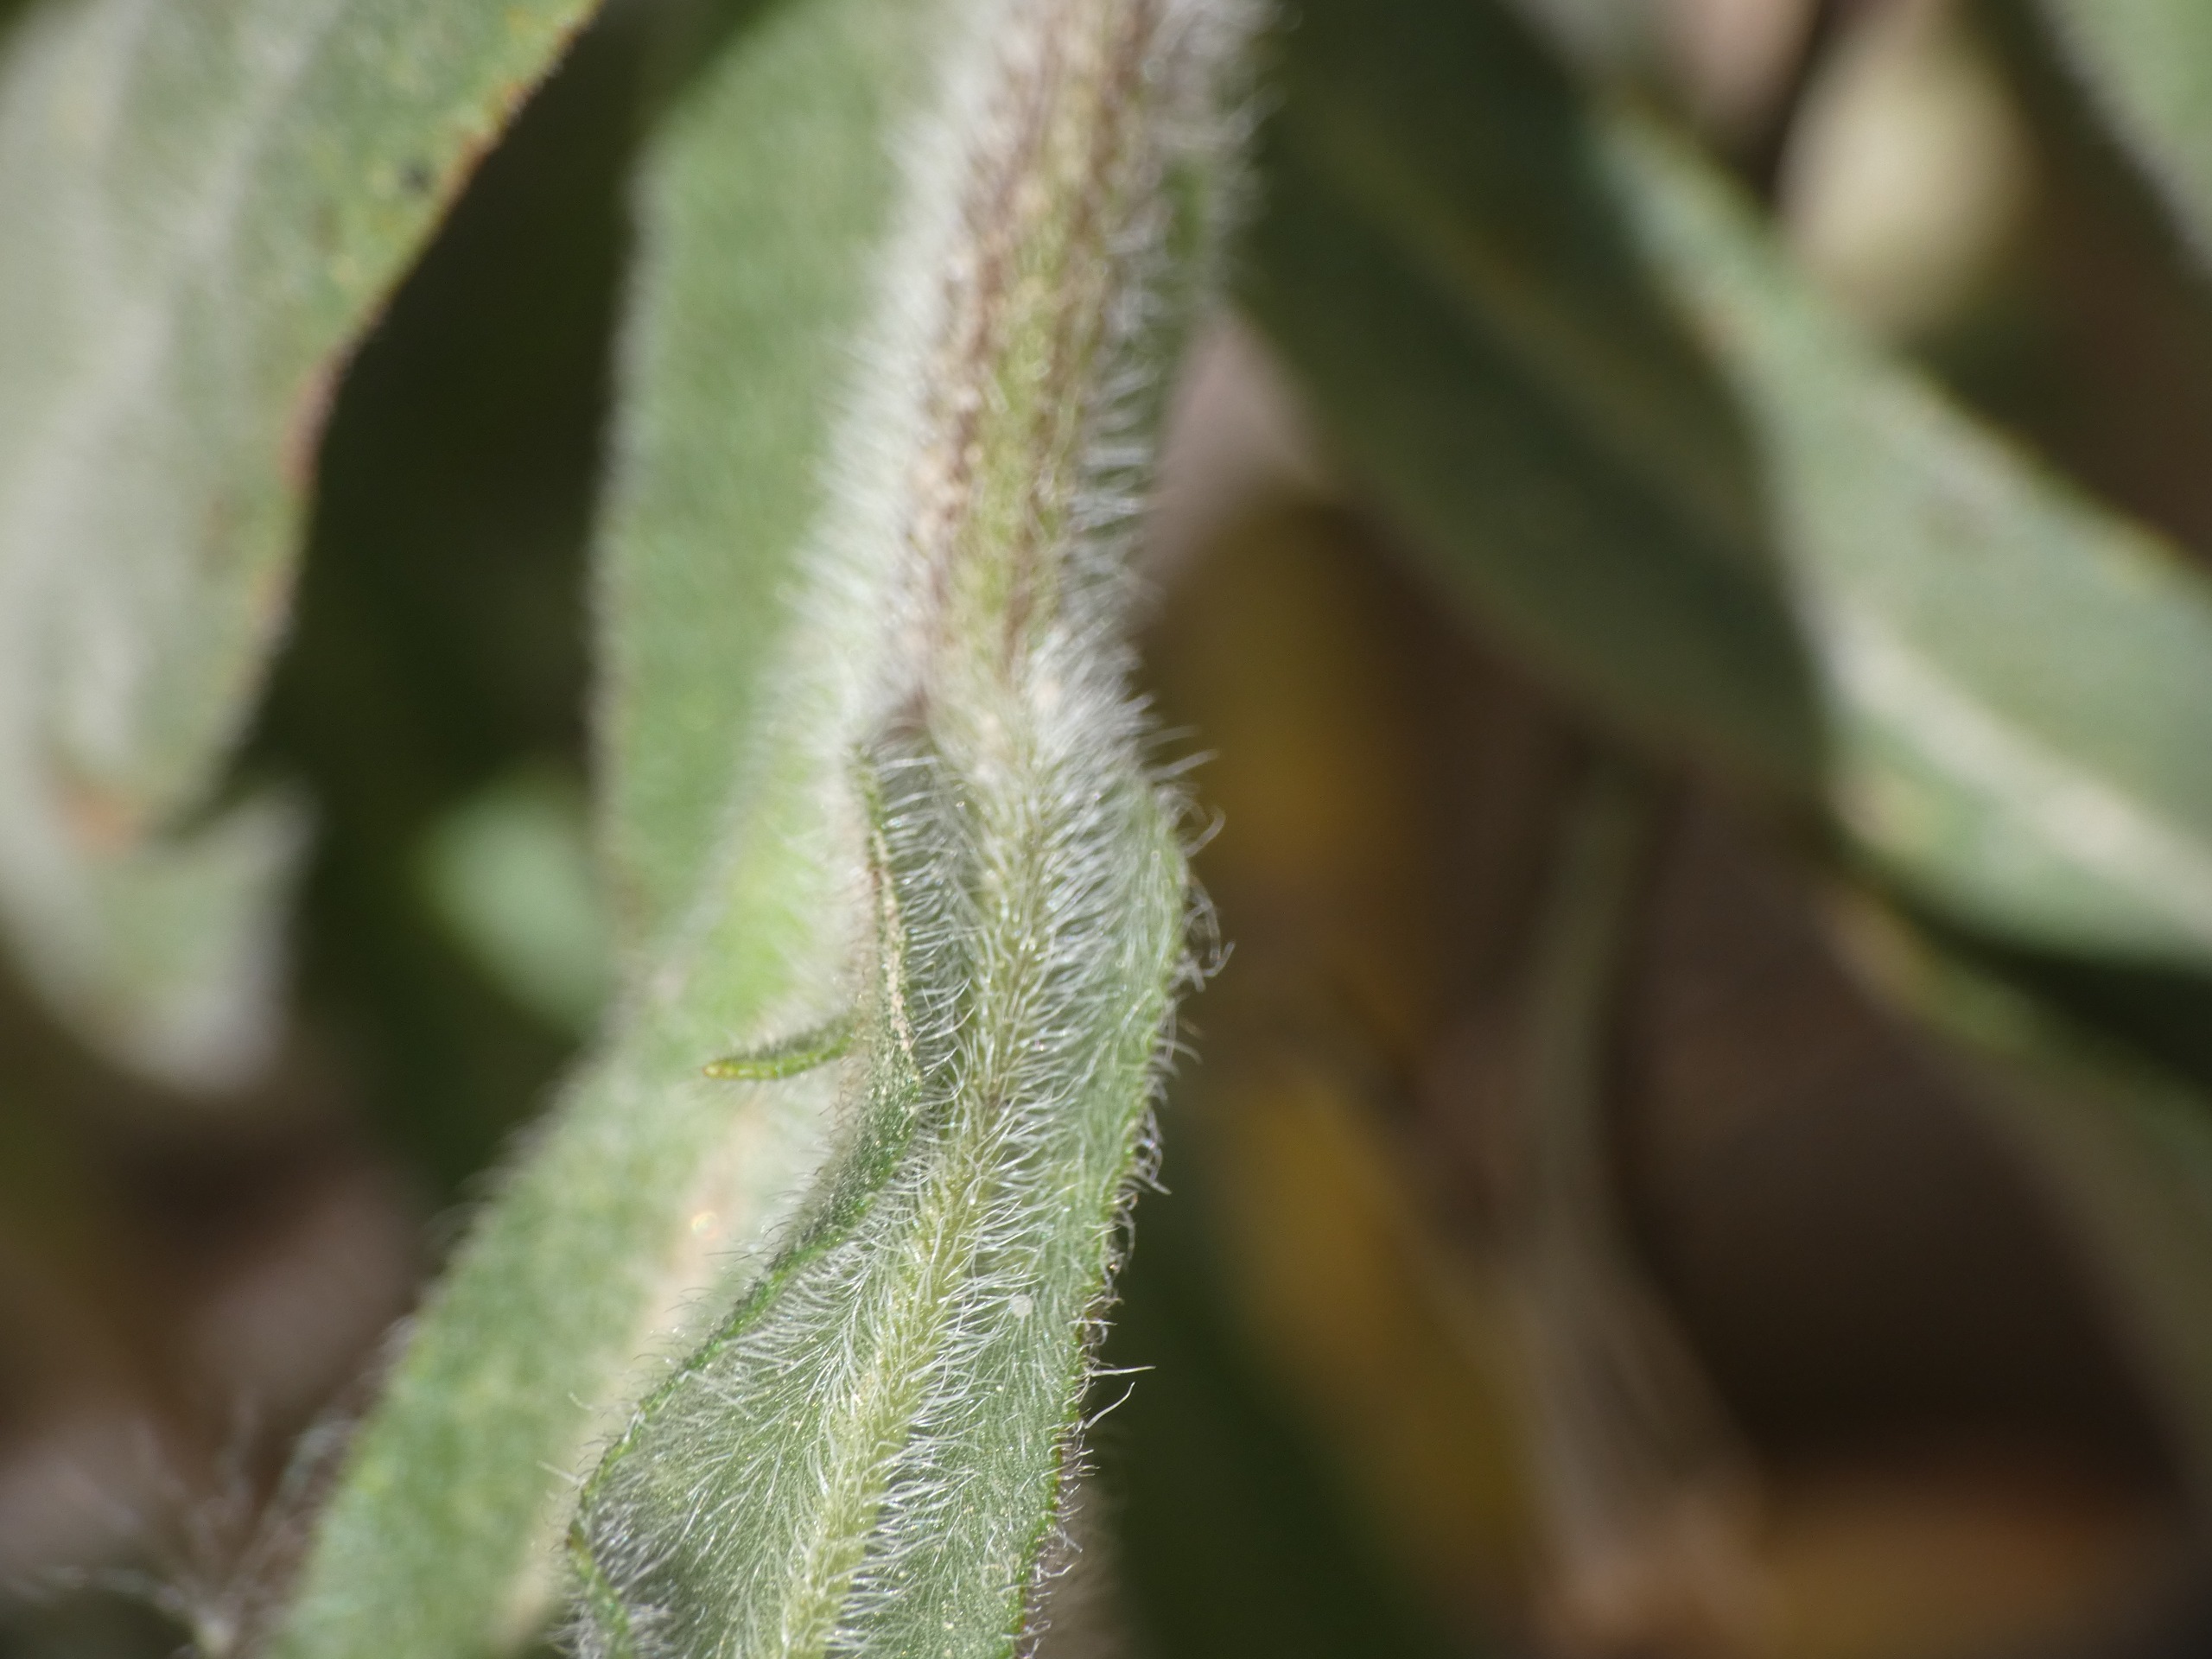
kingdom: Plantae
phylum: Tracheophyta
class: Magnoliopsida
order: Boraginales
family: Boraginaceae
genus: Anchusa
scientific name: Anchusa officinalis
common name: Læge-oksetunge
